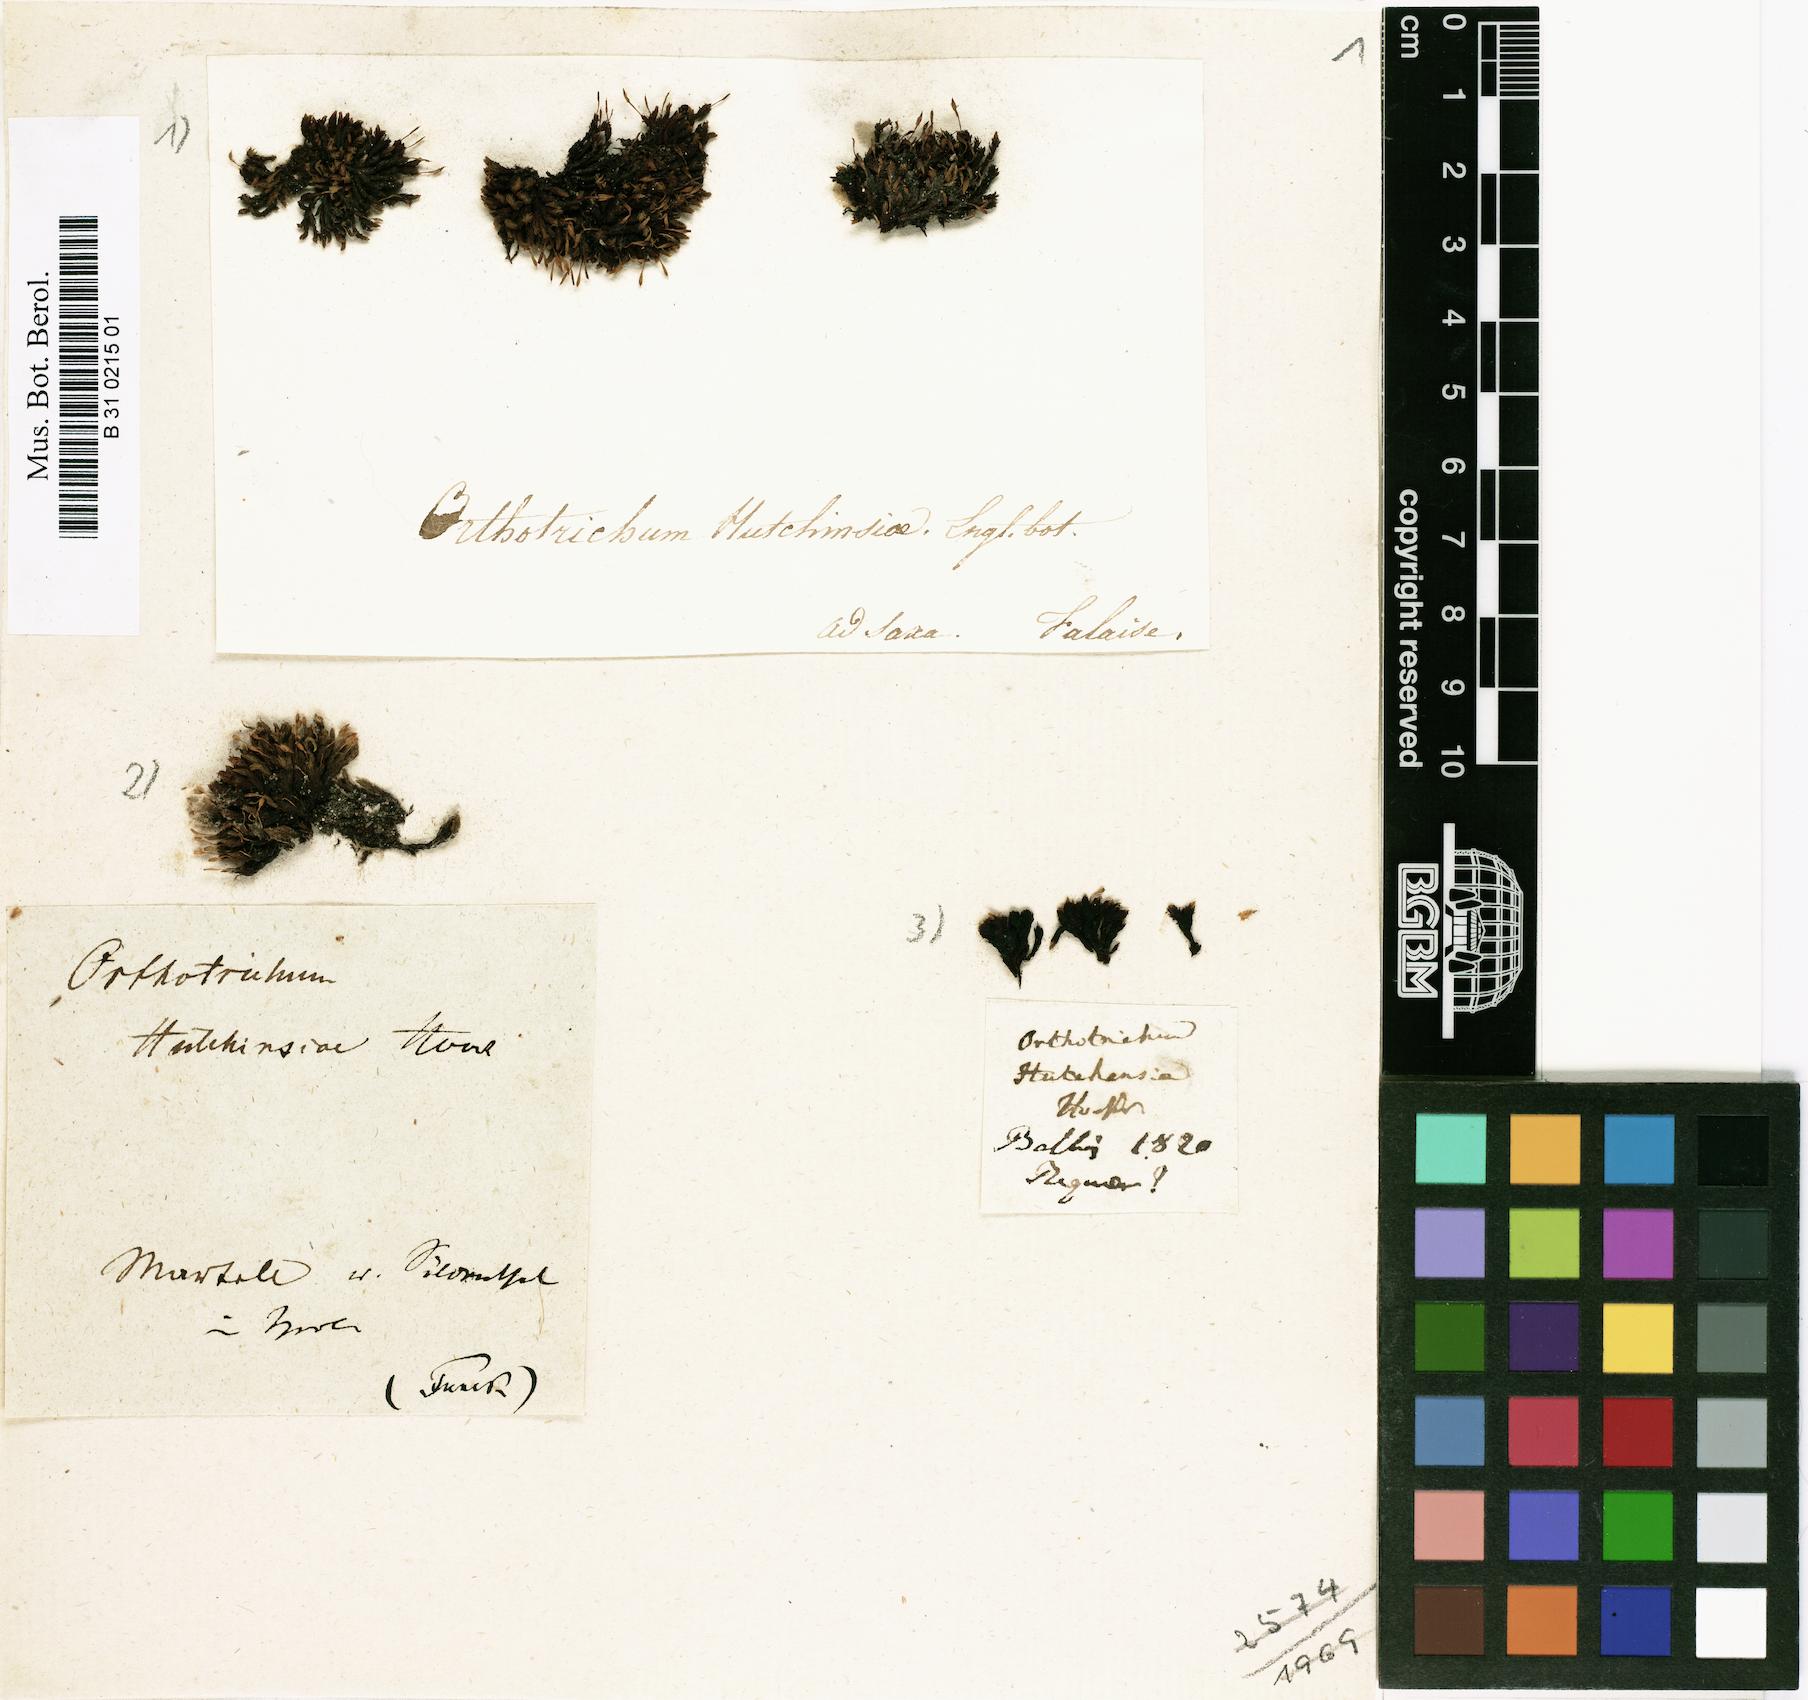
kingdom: Plantae
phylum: Bryophyta
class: Bryopsida
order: Orthotrichales
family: Orthotrichaceae
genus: Ulota
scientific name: Ulota hutchinsiae
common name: Hutchins' pincushion
